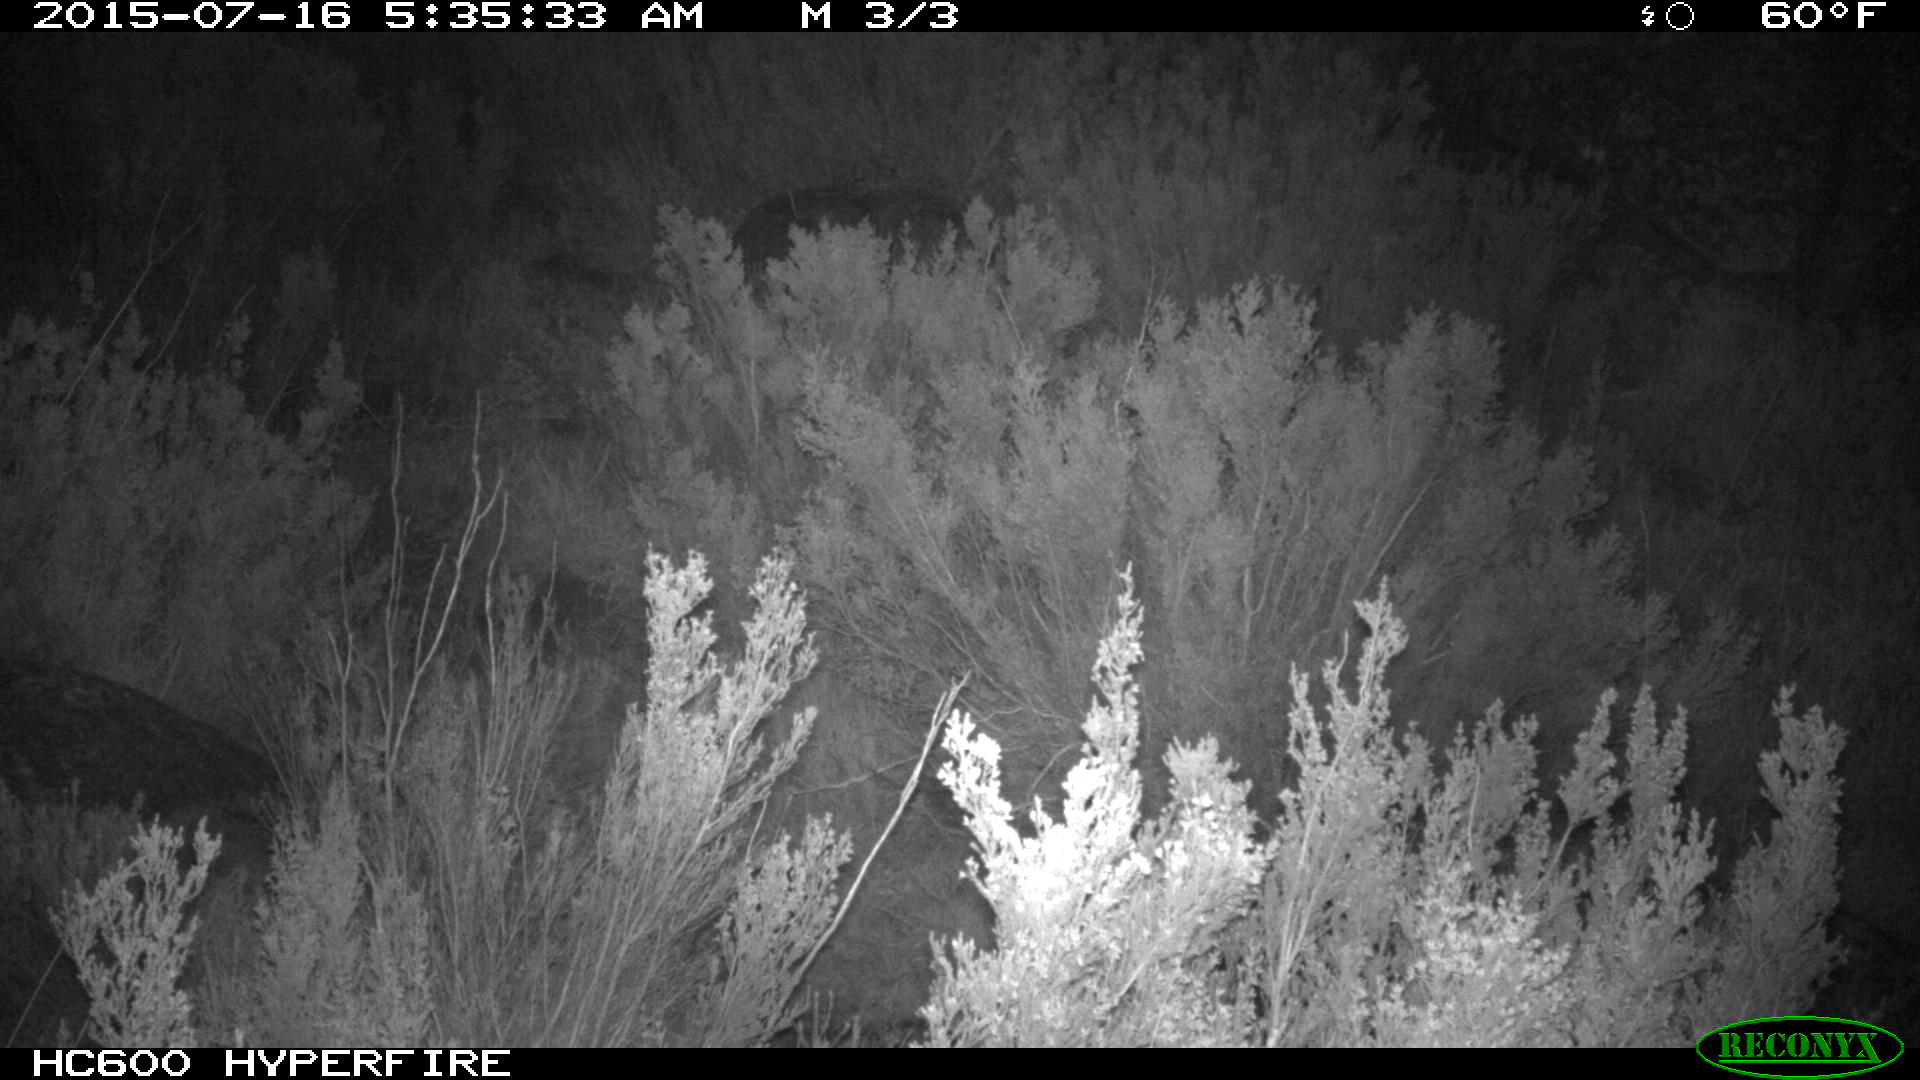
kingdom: Animalia
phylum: Chordata
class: Mammalia
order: Artiodactyla
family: Suidae
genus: Sus
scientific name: Sus scrofa
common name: Wild boar
